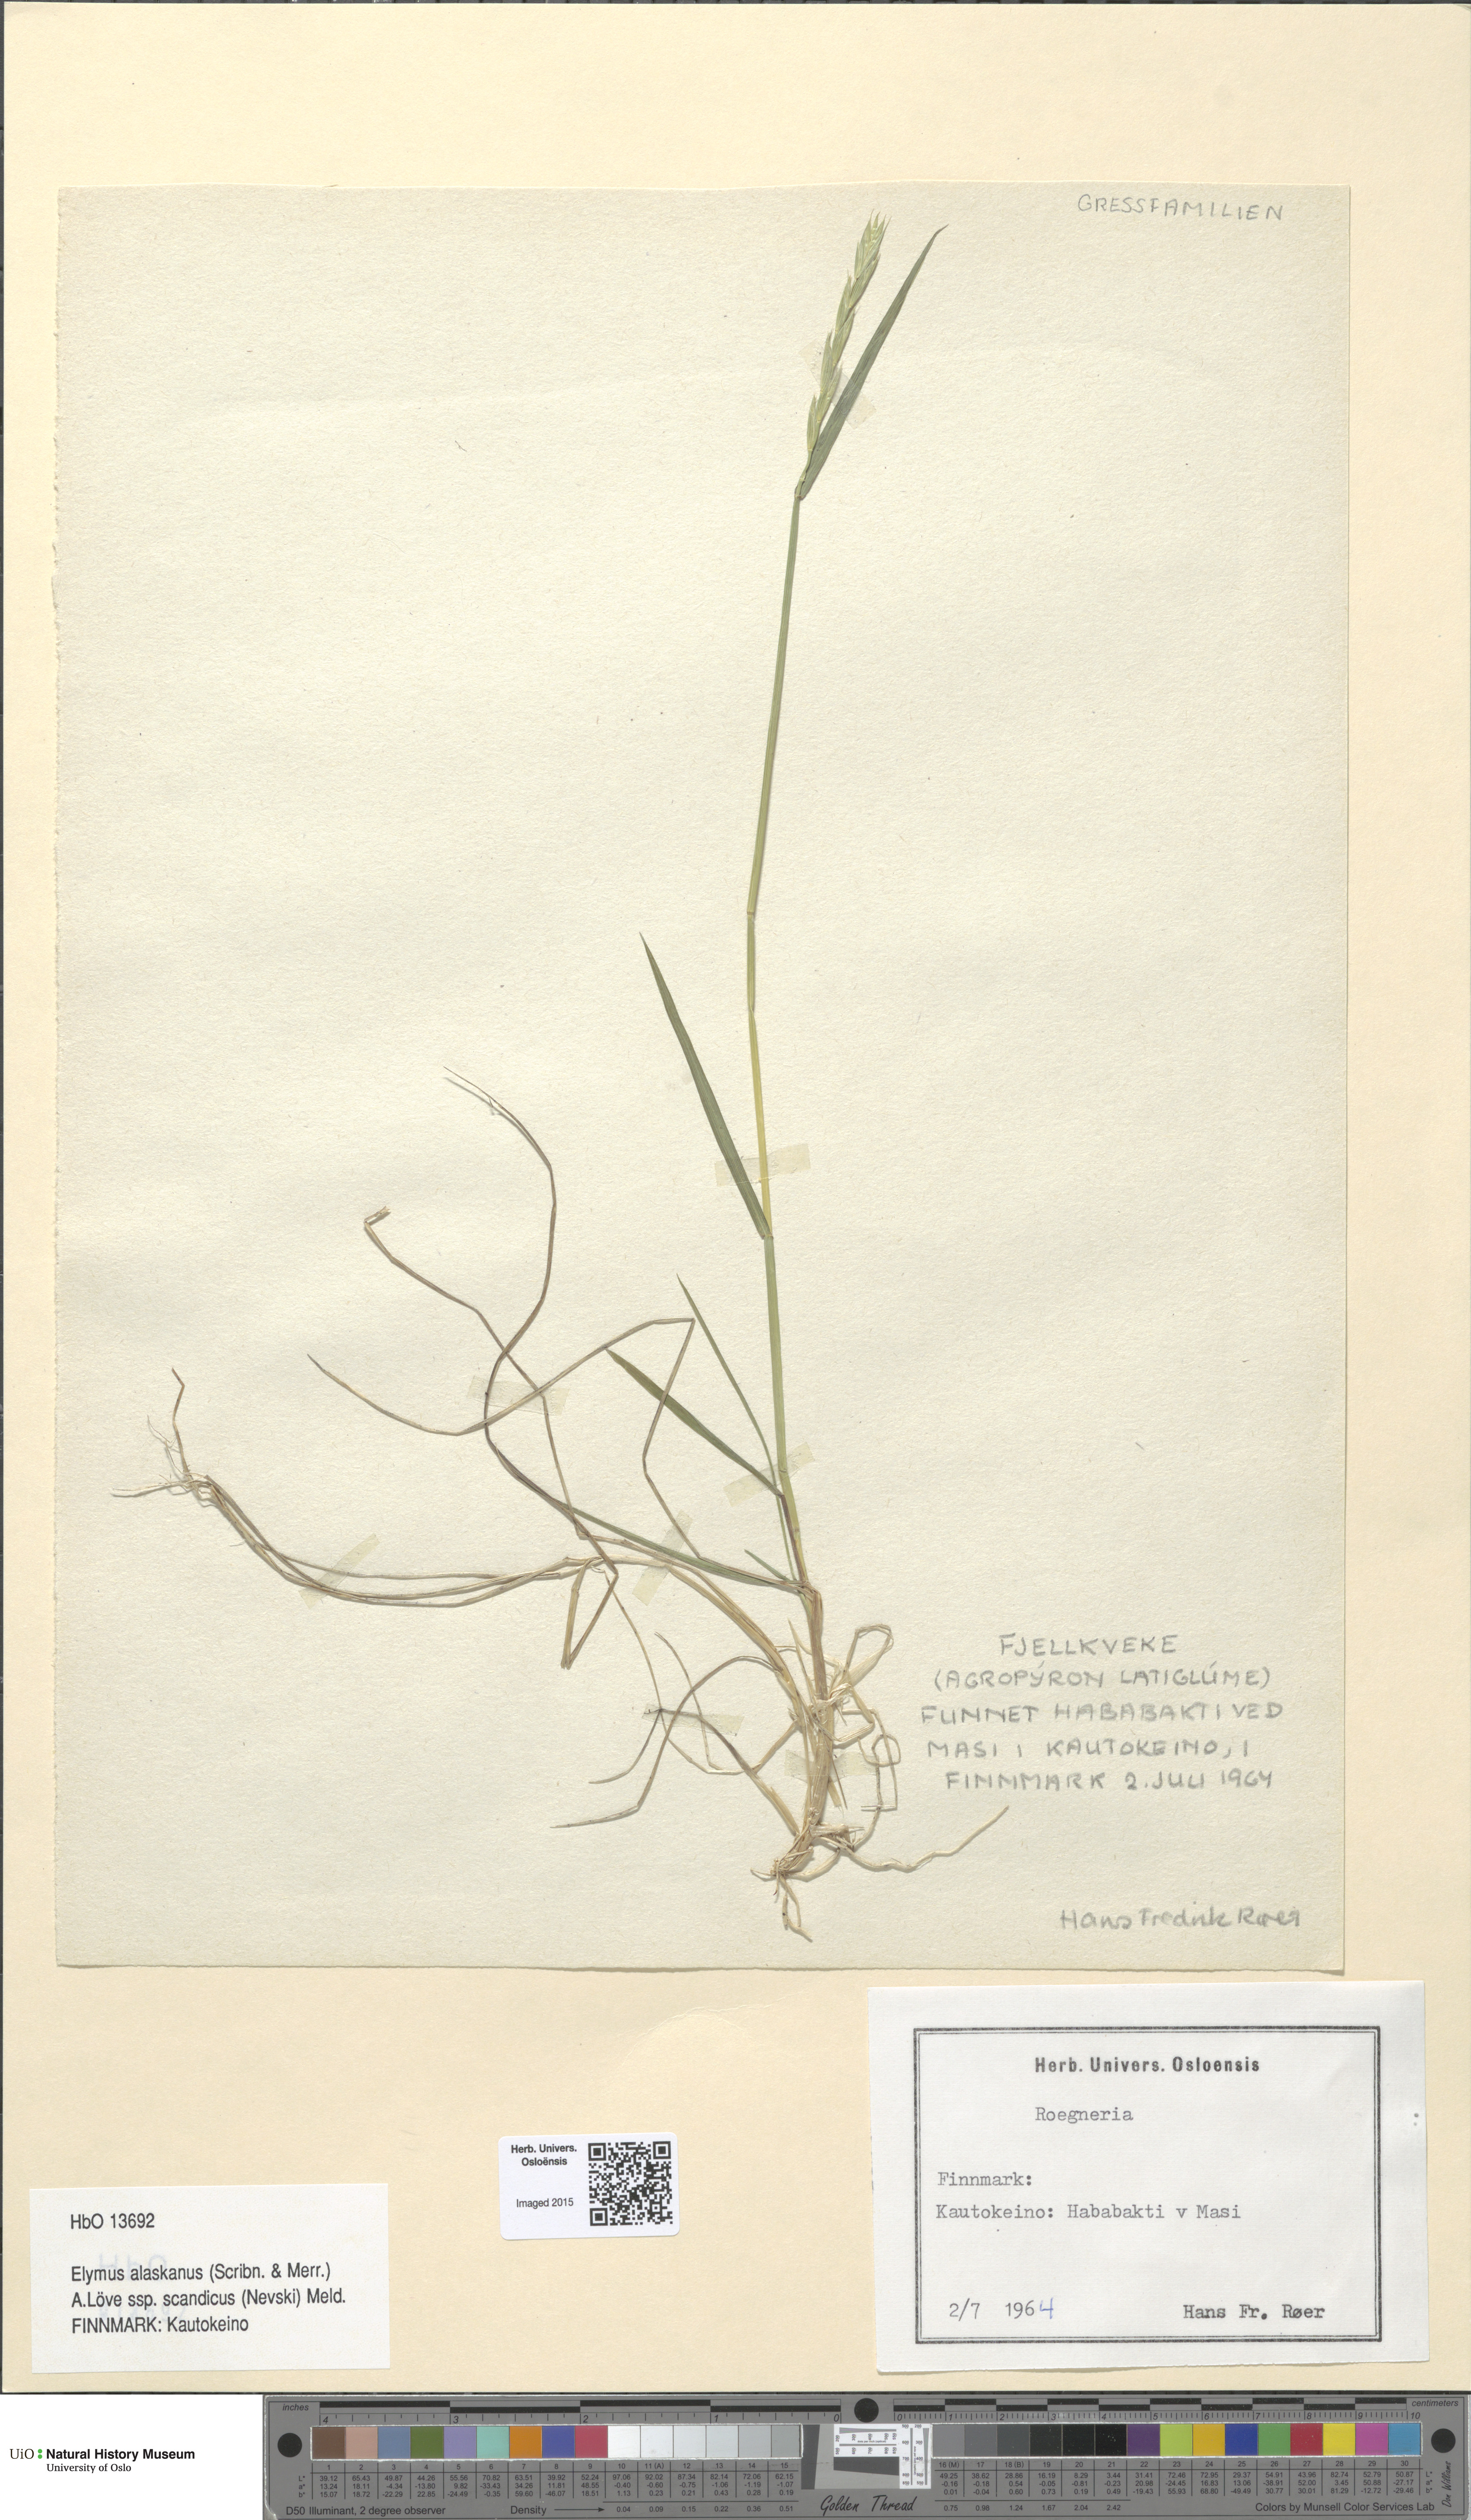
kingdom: Plantae
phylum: Tracheophyta
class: Liliopsida
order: Poales
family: Poaceae
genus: Elymus
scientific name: Elymus macrourus
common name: Northern wheatgrass
